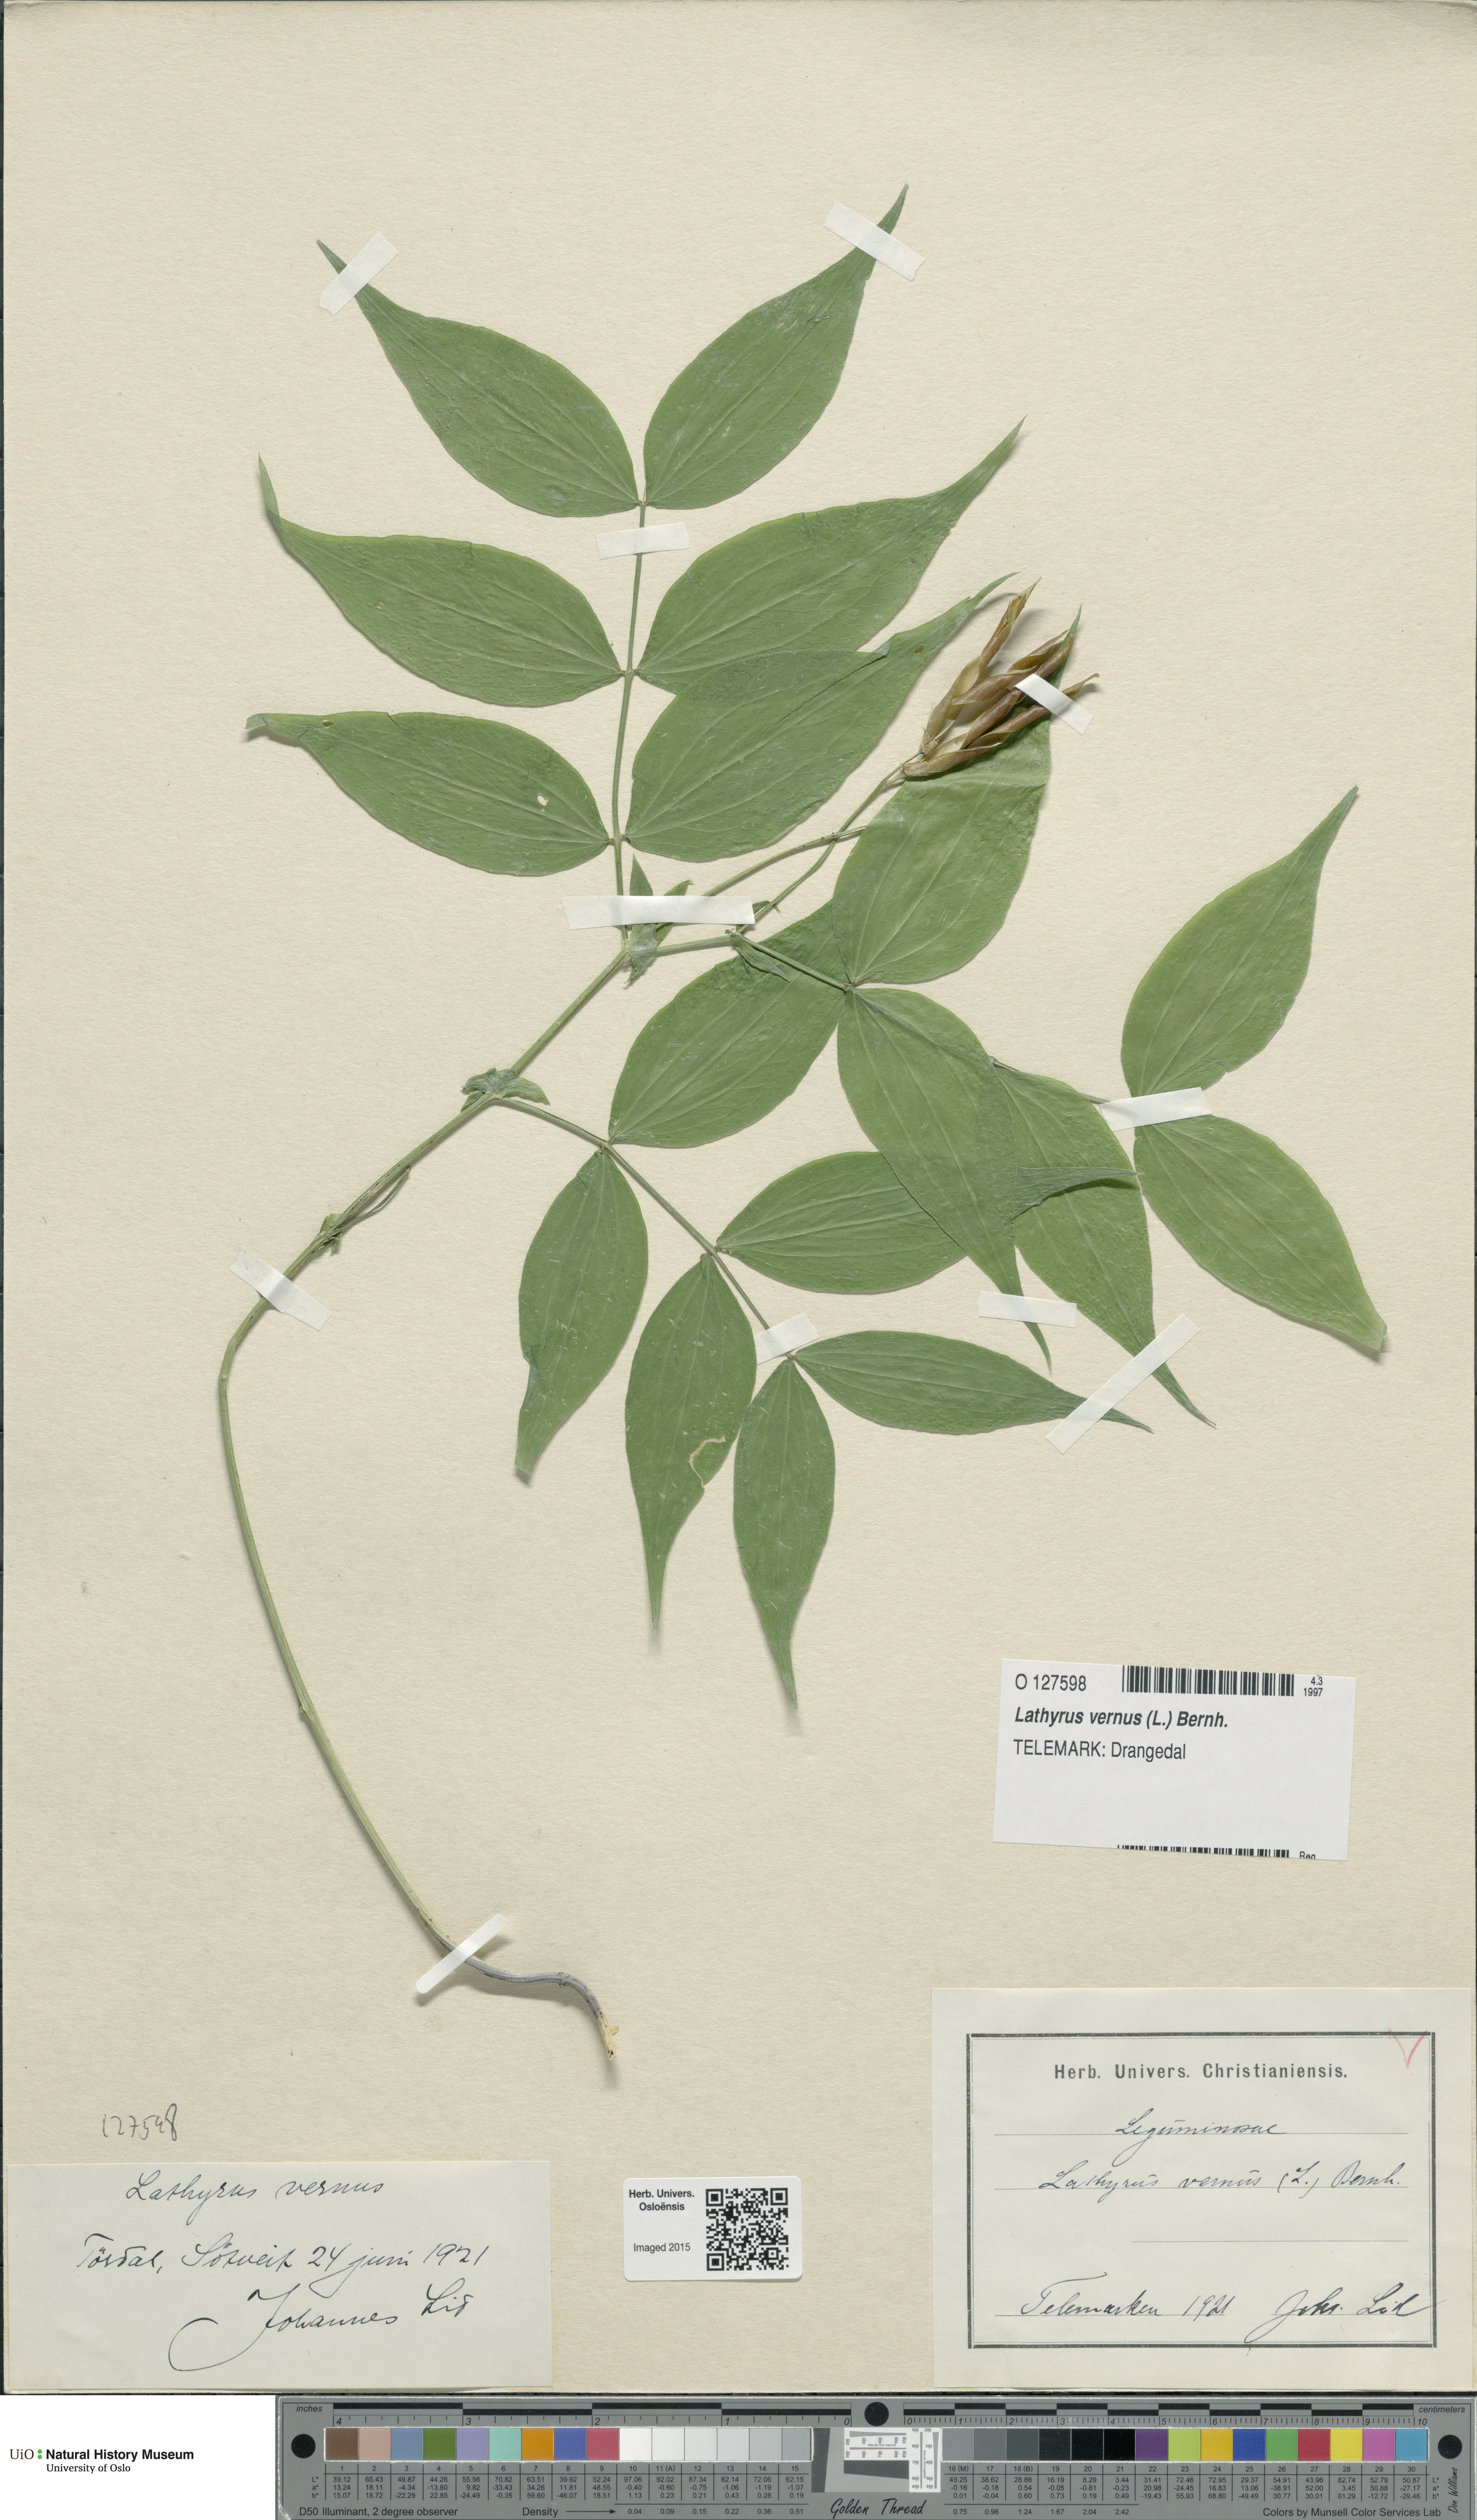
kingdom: Plantae
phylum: Tracheophyta
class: Magnoliopsida
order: Fabales
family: Fabaceae
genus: Lathyrus
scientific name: Lathyrus vernus
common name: Spring pea
